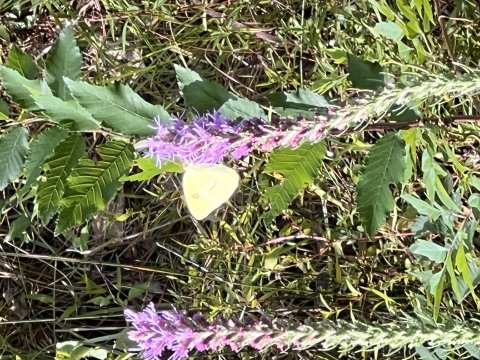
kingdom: Animalia
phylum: Arthropoda
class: Insecta
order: Lepidoptera
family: Pieridae
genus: Phoebis
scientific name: Phoebis sennae
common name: Cloudless Sulphur
